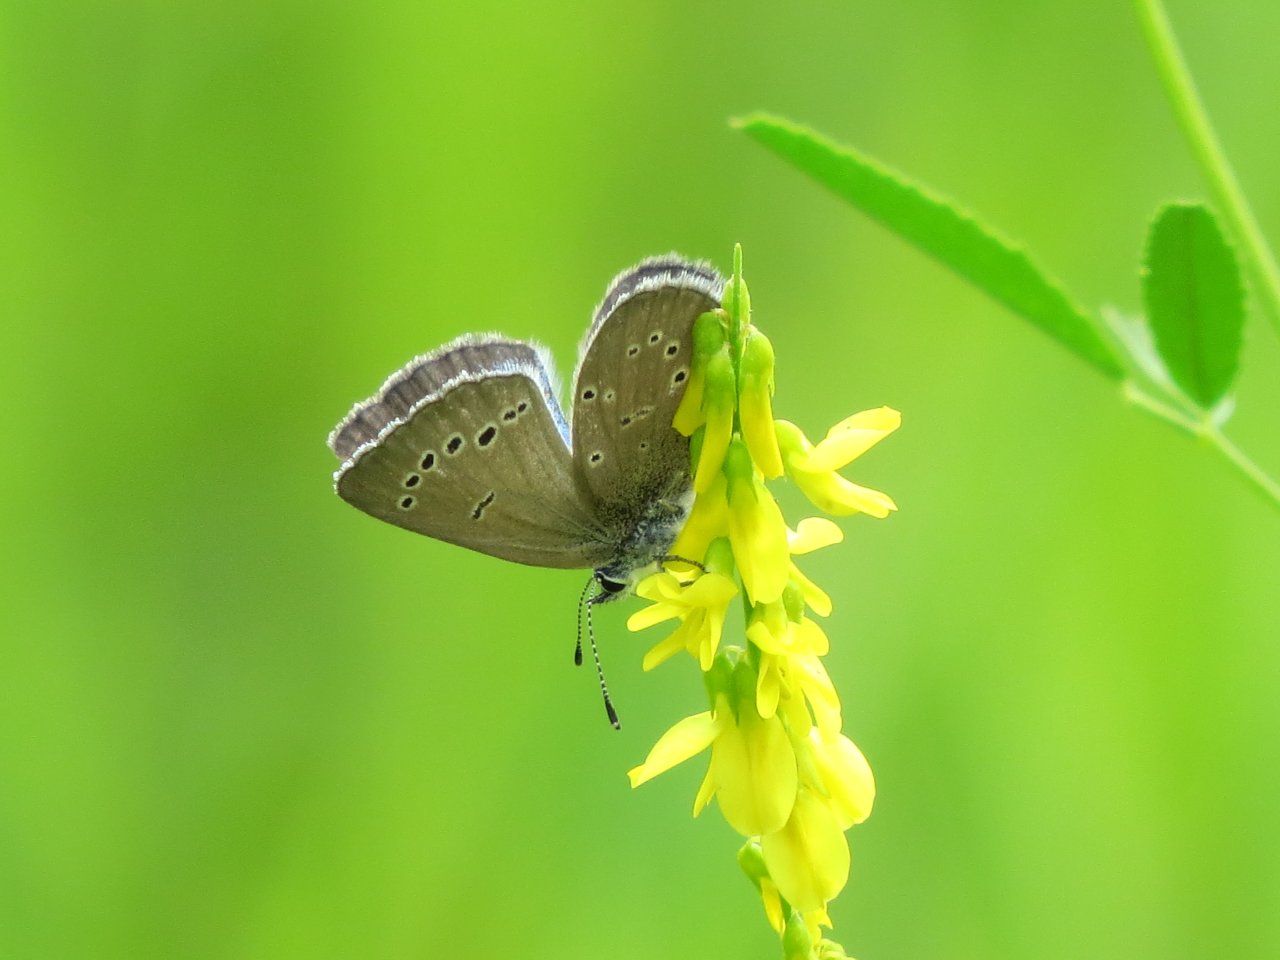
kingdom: Animalia
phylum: Arthropoda
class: Insecta
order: Lepidoptera
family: Lycaenidae
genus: Glaucopsyche
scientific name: Glaucopsyche lygdamus
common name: Silvery Blue
